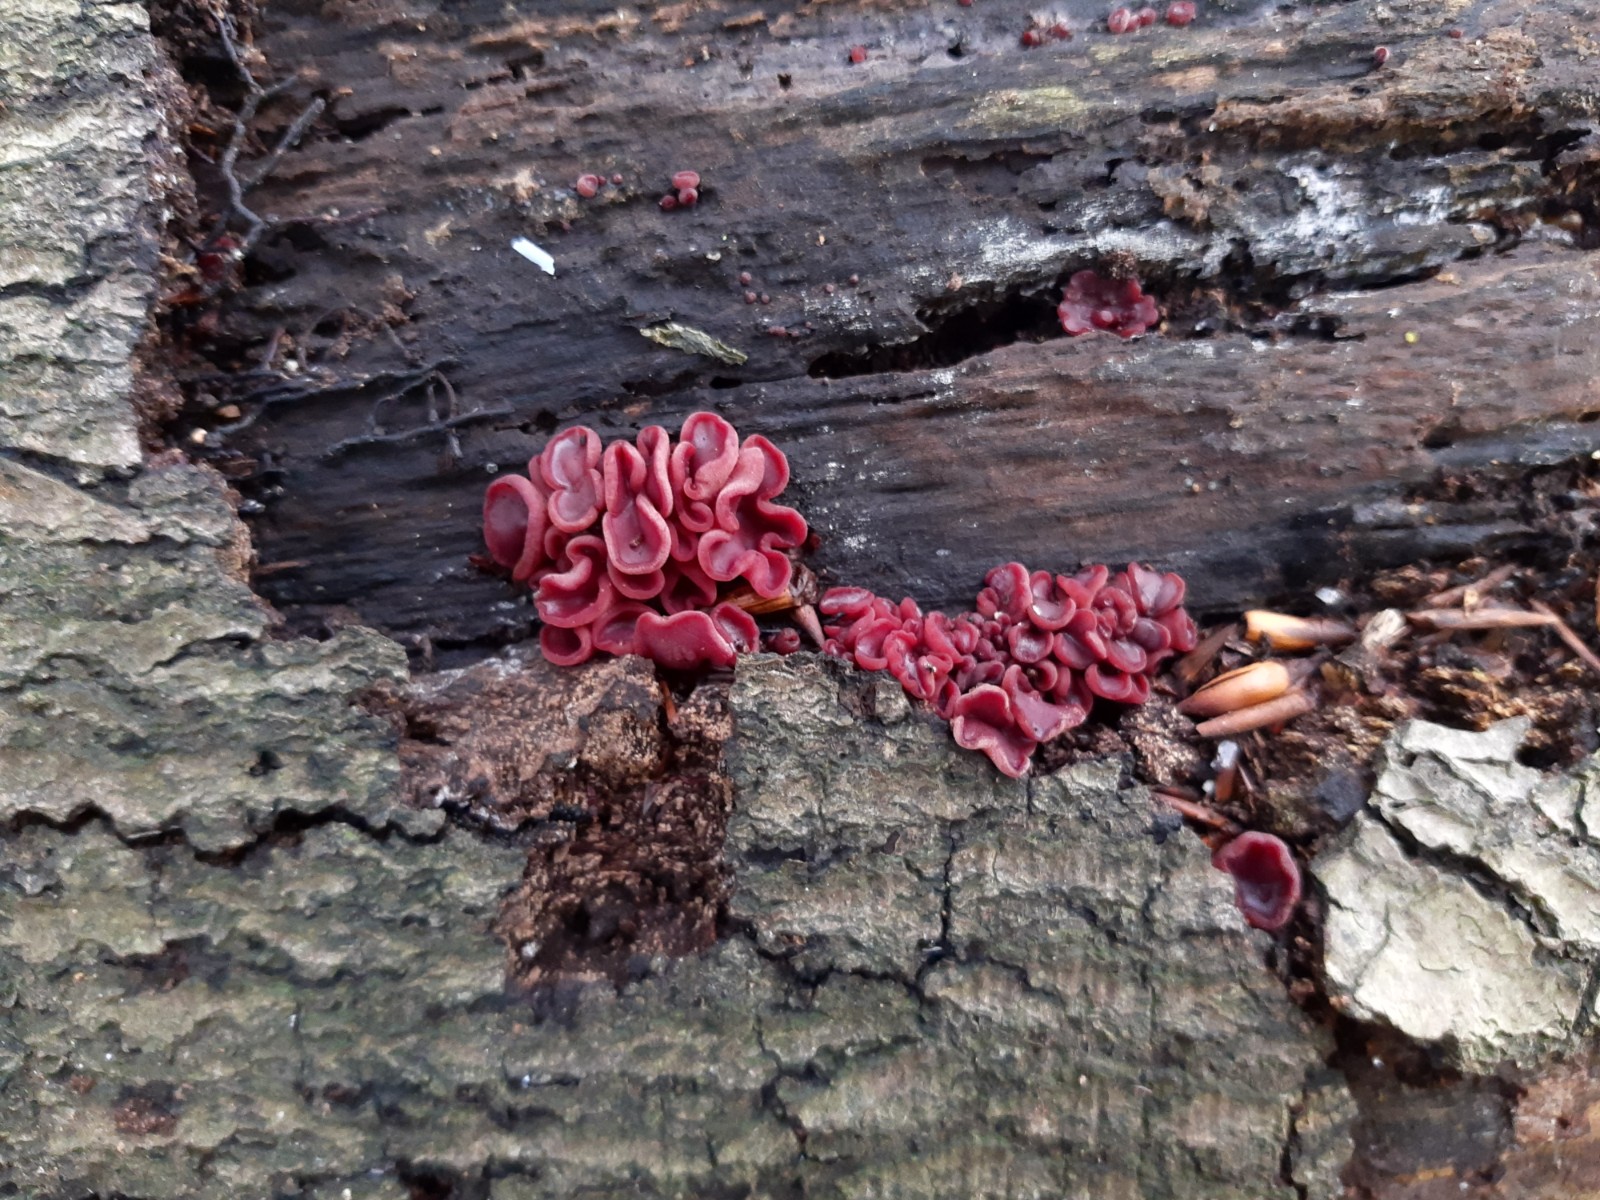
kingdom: Fungi
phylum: Ascomycota
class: Leotiomycetes
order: Helotiales
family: Gelatinodiscaceae
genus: Ascocoryne
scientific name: Ascocoryne cylichnium
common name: stor sejskive
